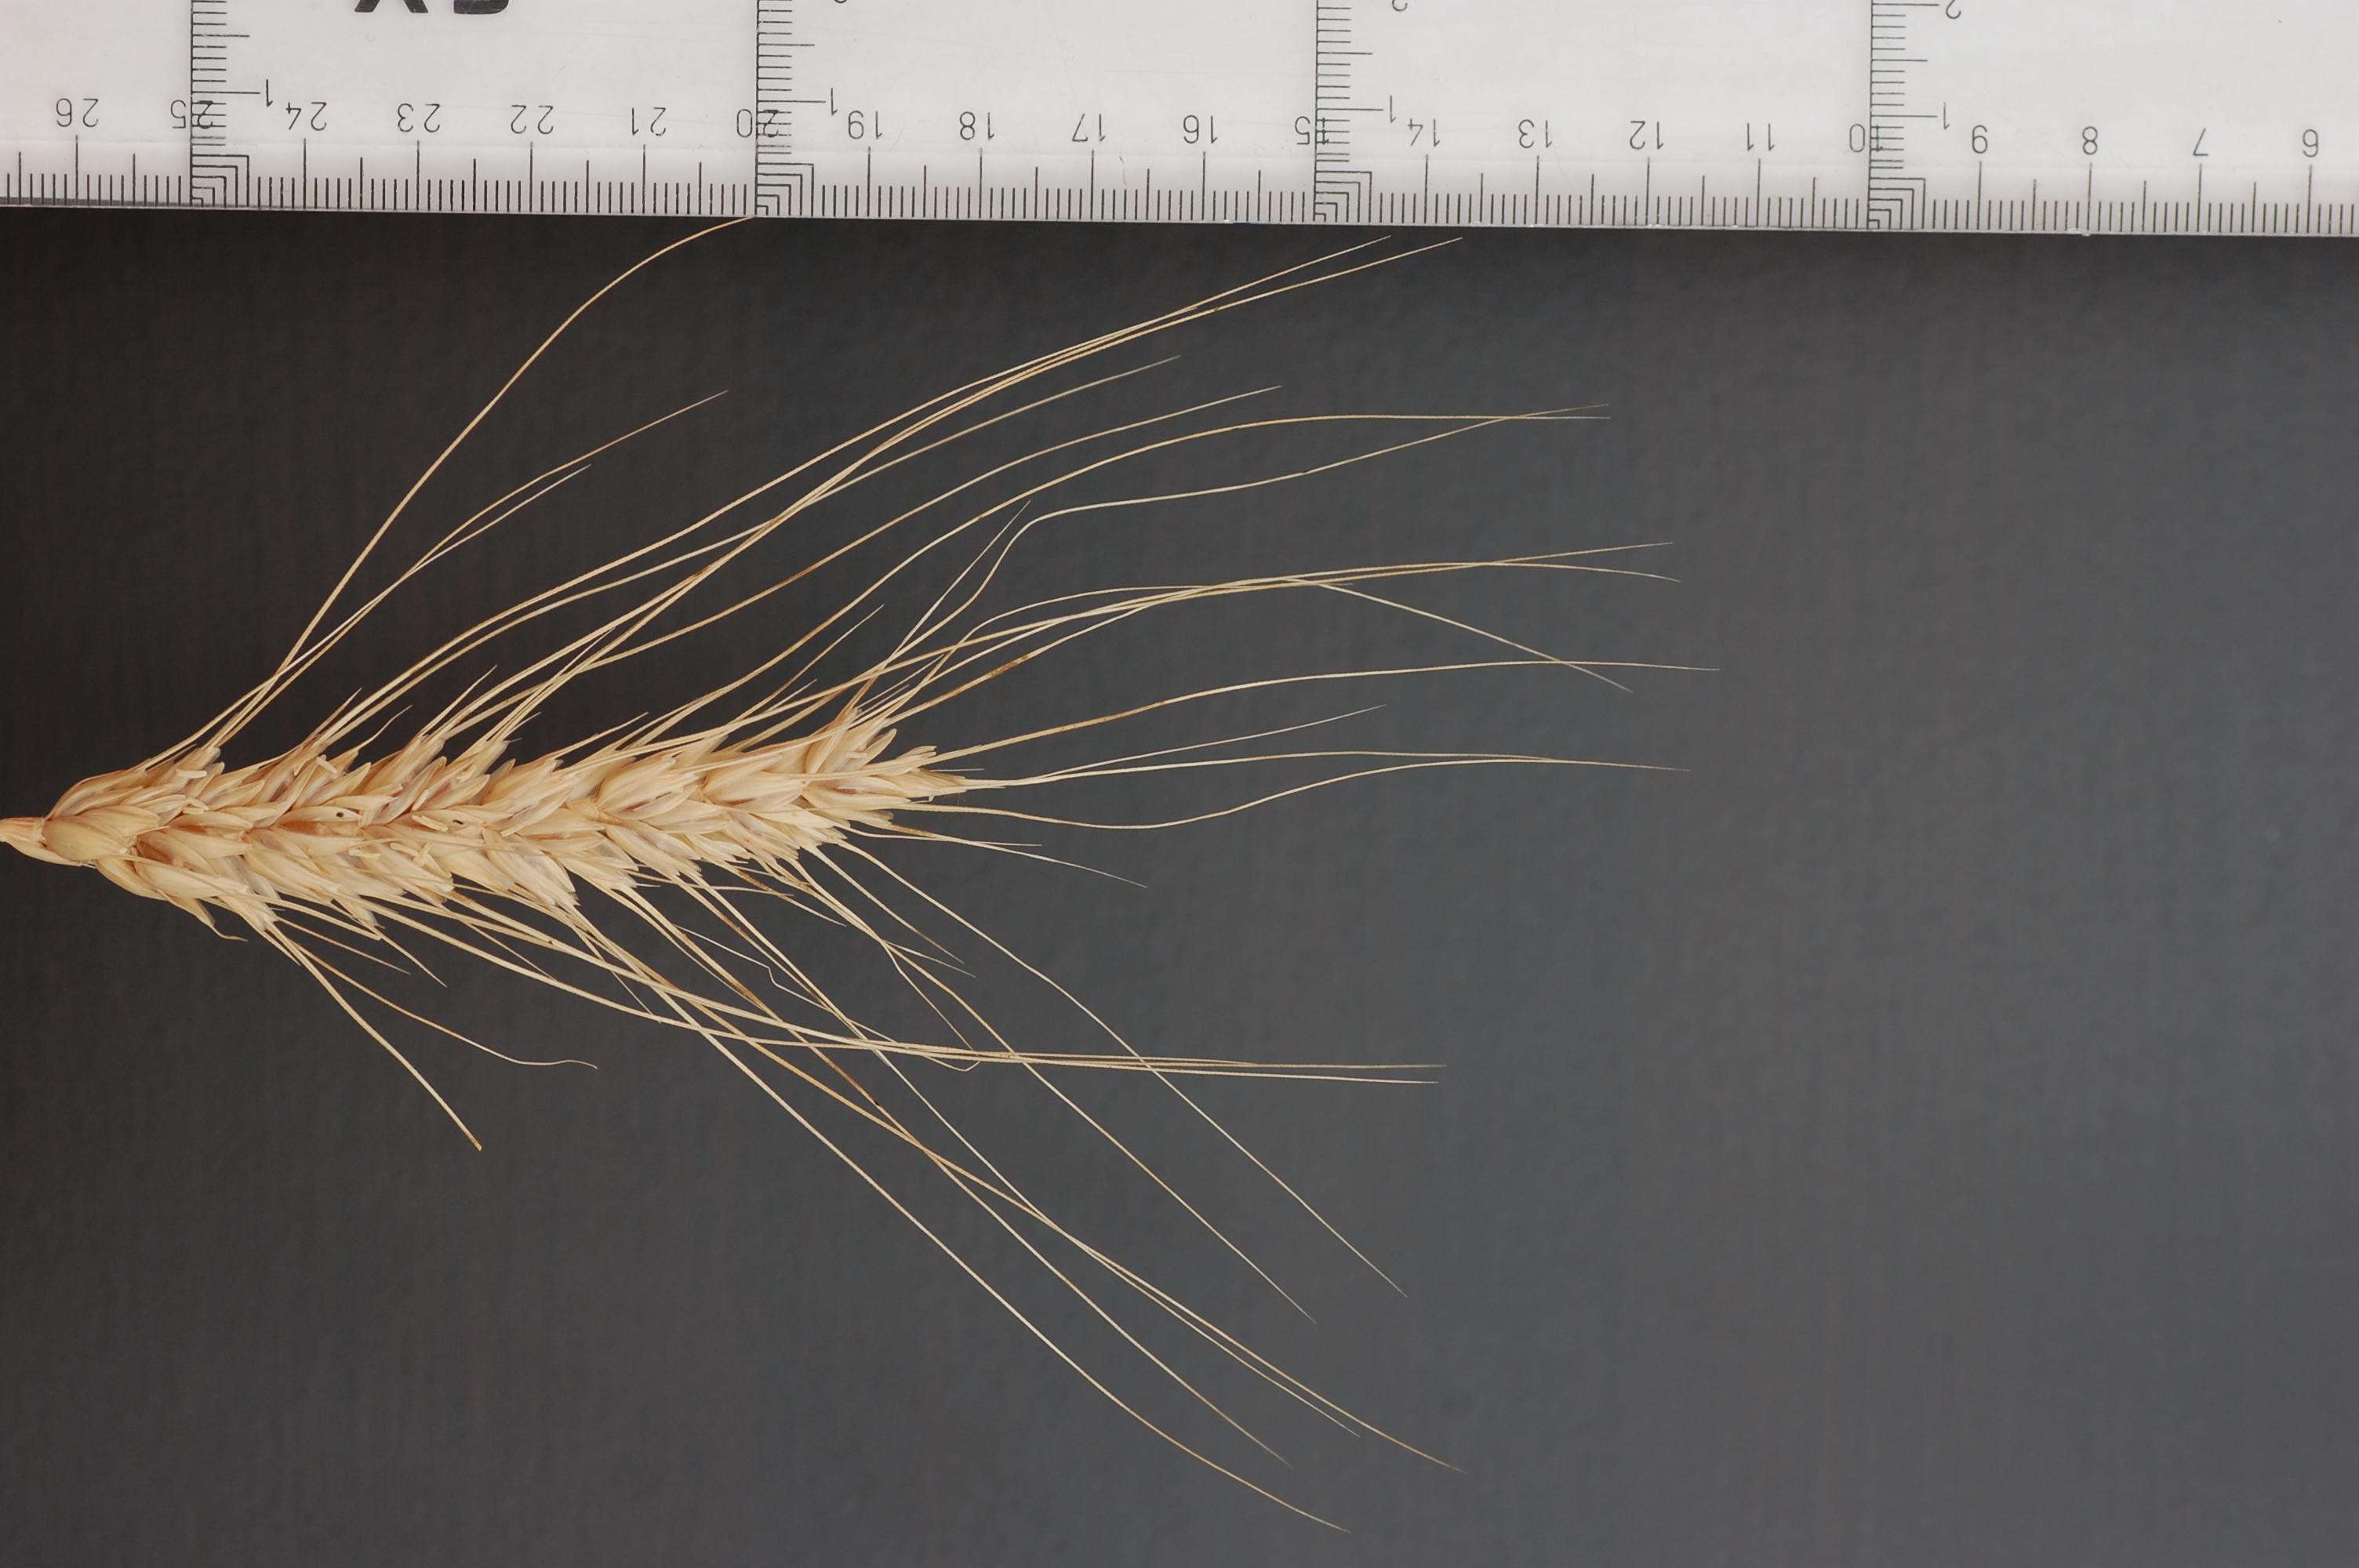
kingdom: Plantae
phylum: Tracheophyta
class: Liliopsida
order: Poales
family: Poaceae
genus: Triticum
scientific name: Triticum aestivum
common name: Common wheat
